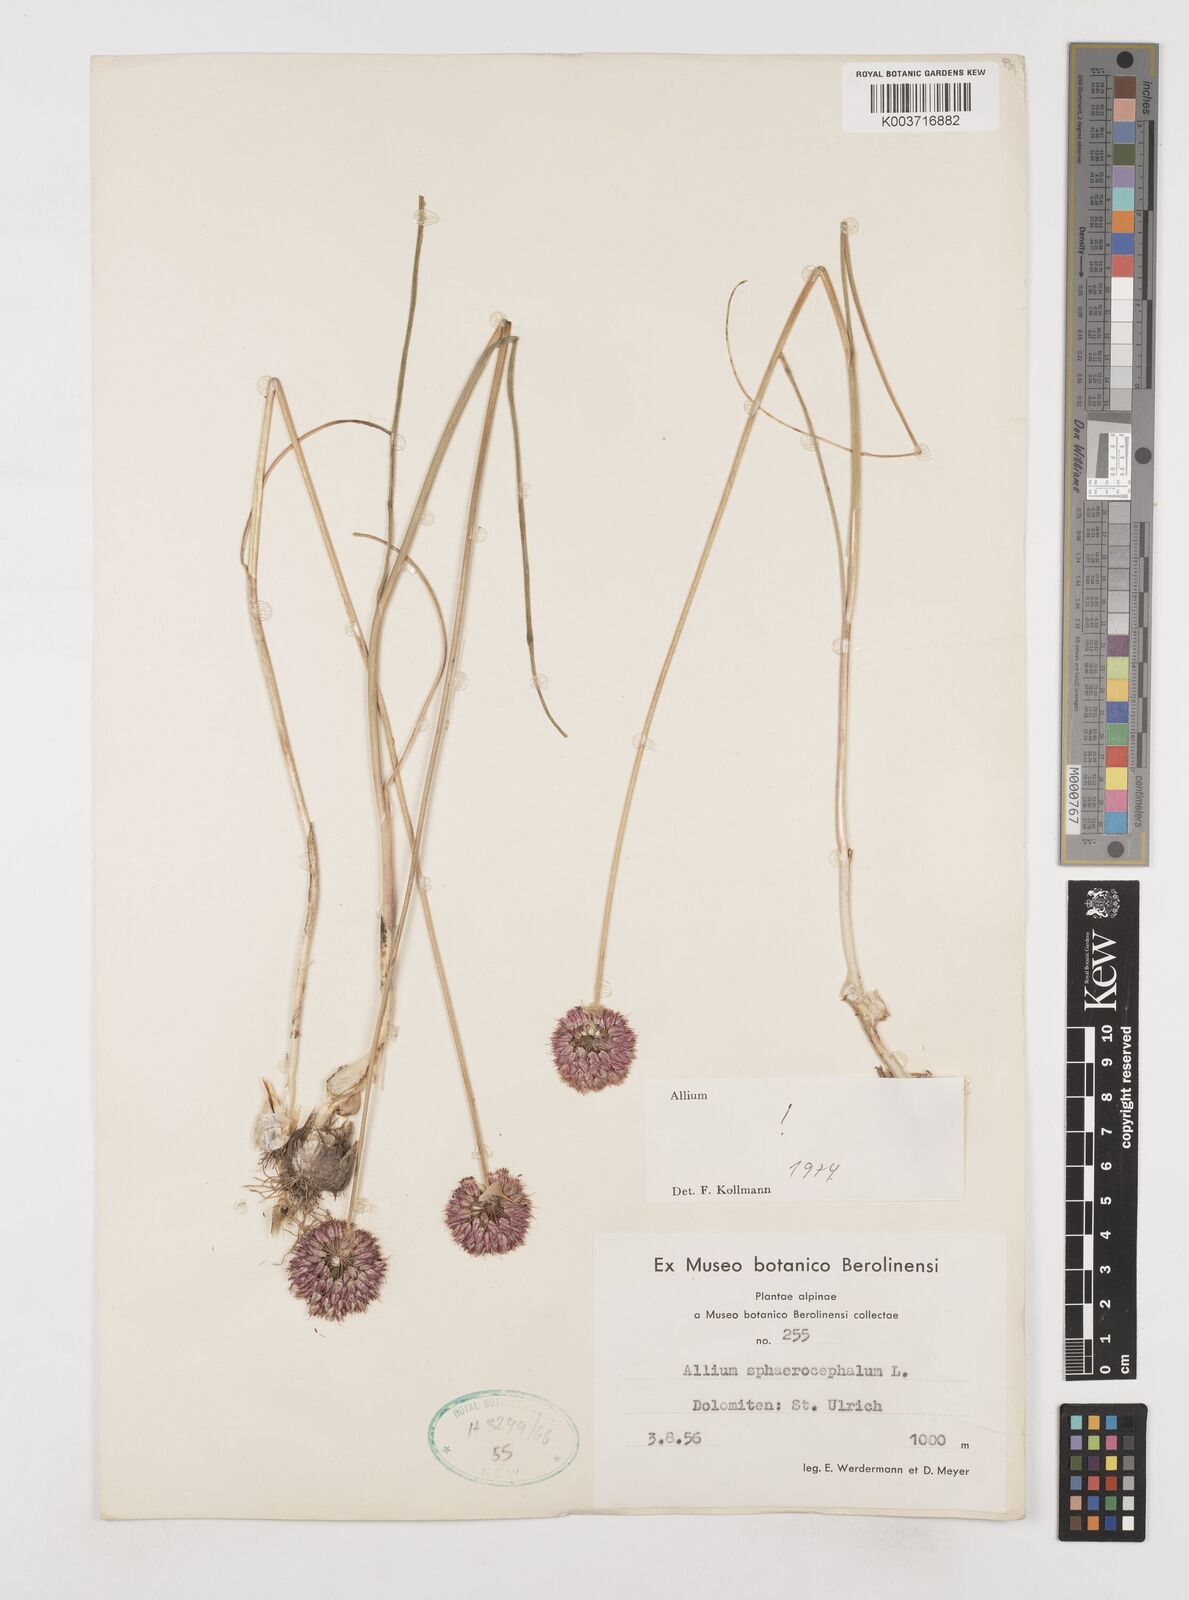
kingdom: Plantae
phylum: Tracheophyta
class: Liliopsida
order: Asparagales
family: Amaryllidaceae
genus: Allium
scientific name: Allium sphaerocephalon
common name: Round-headed leek
